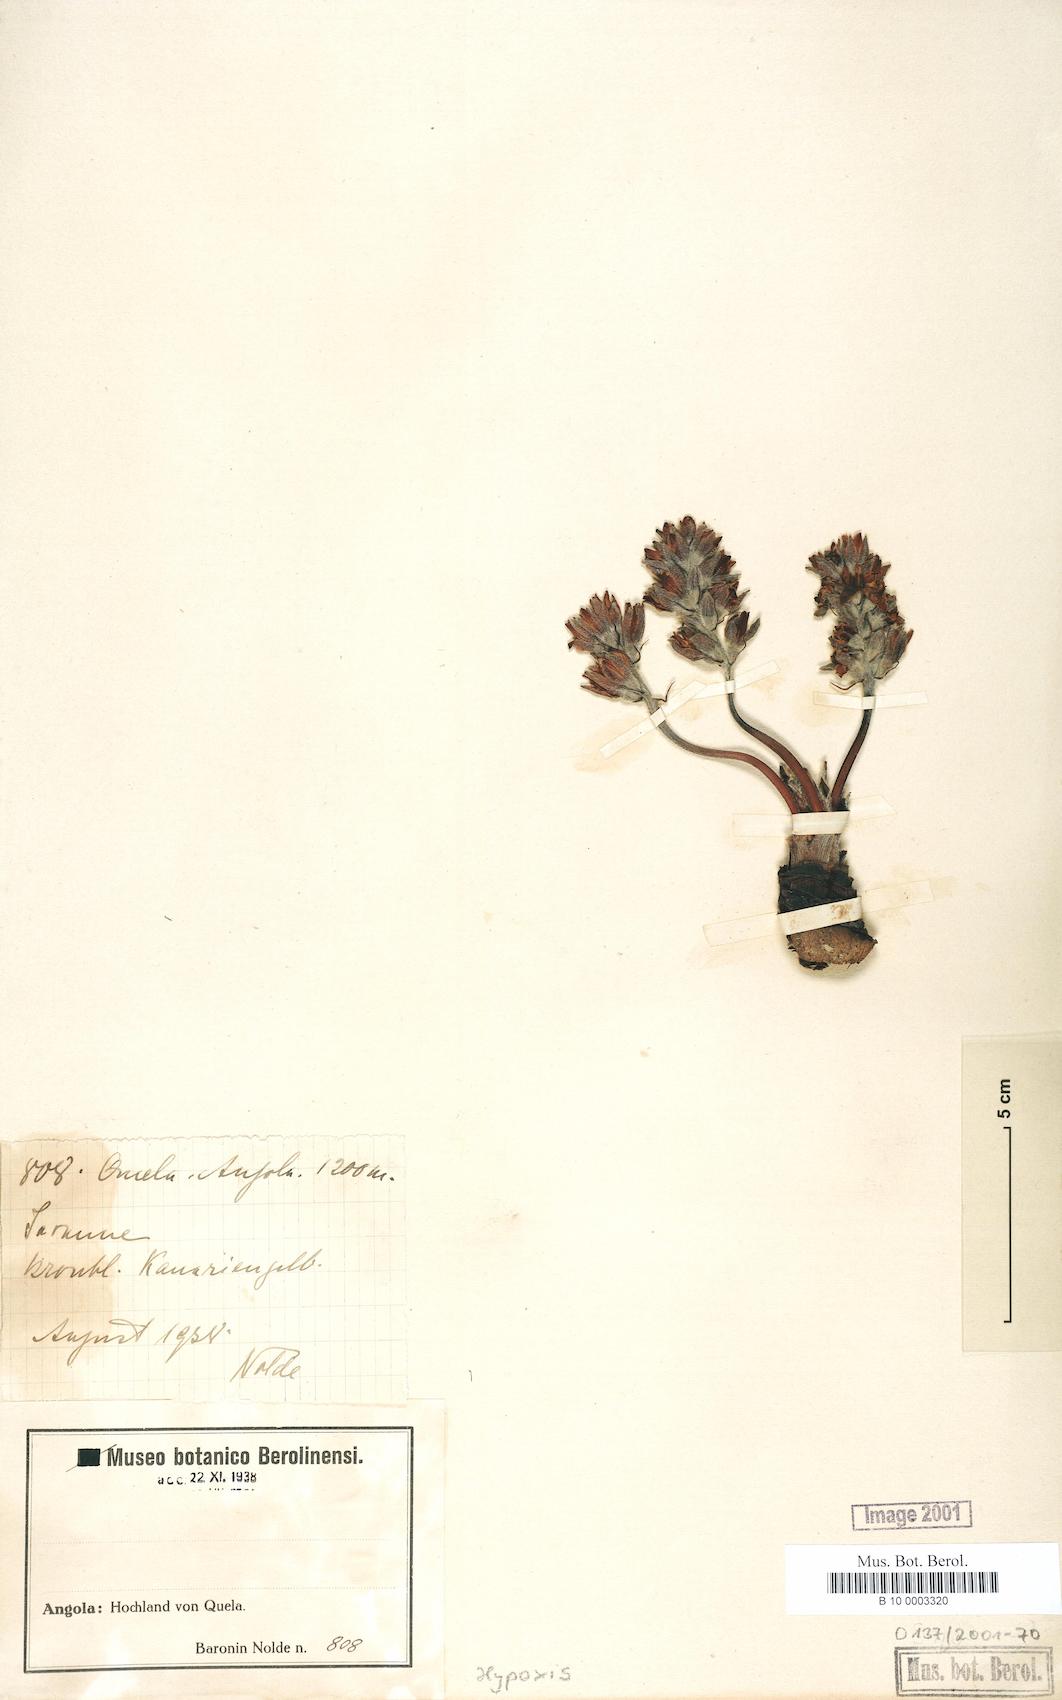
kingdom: Plantae
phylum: Tracheophyta
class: Liliopsida
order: Asparagales
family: Hypoxidaceae
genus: Hypoxis
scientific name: Hypoxis
